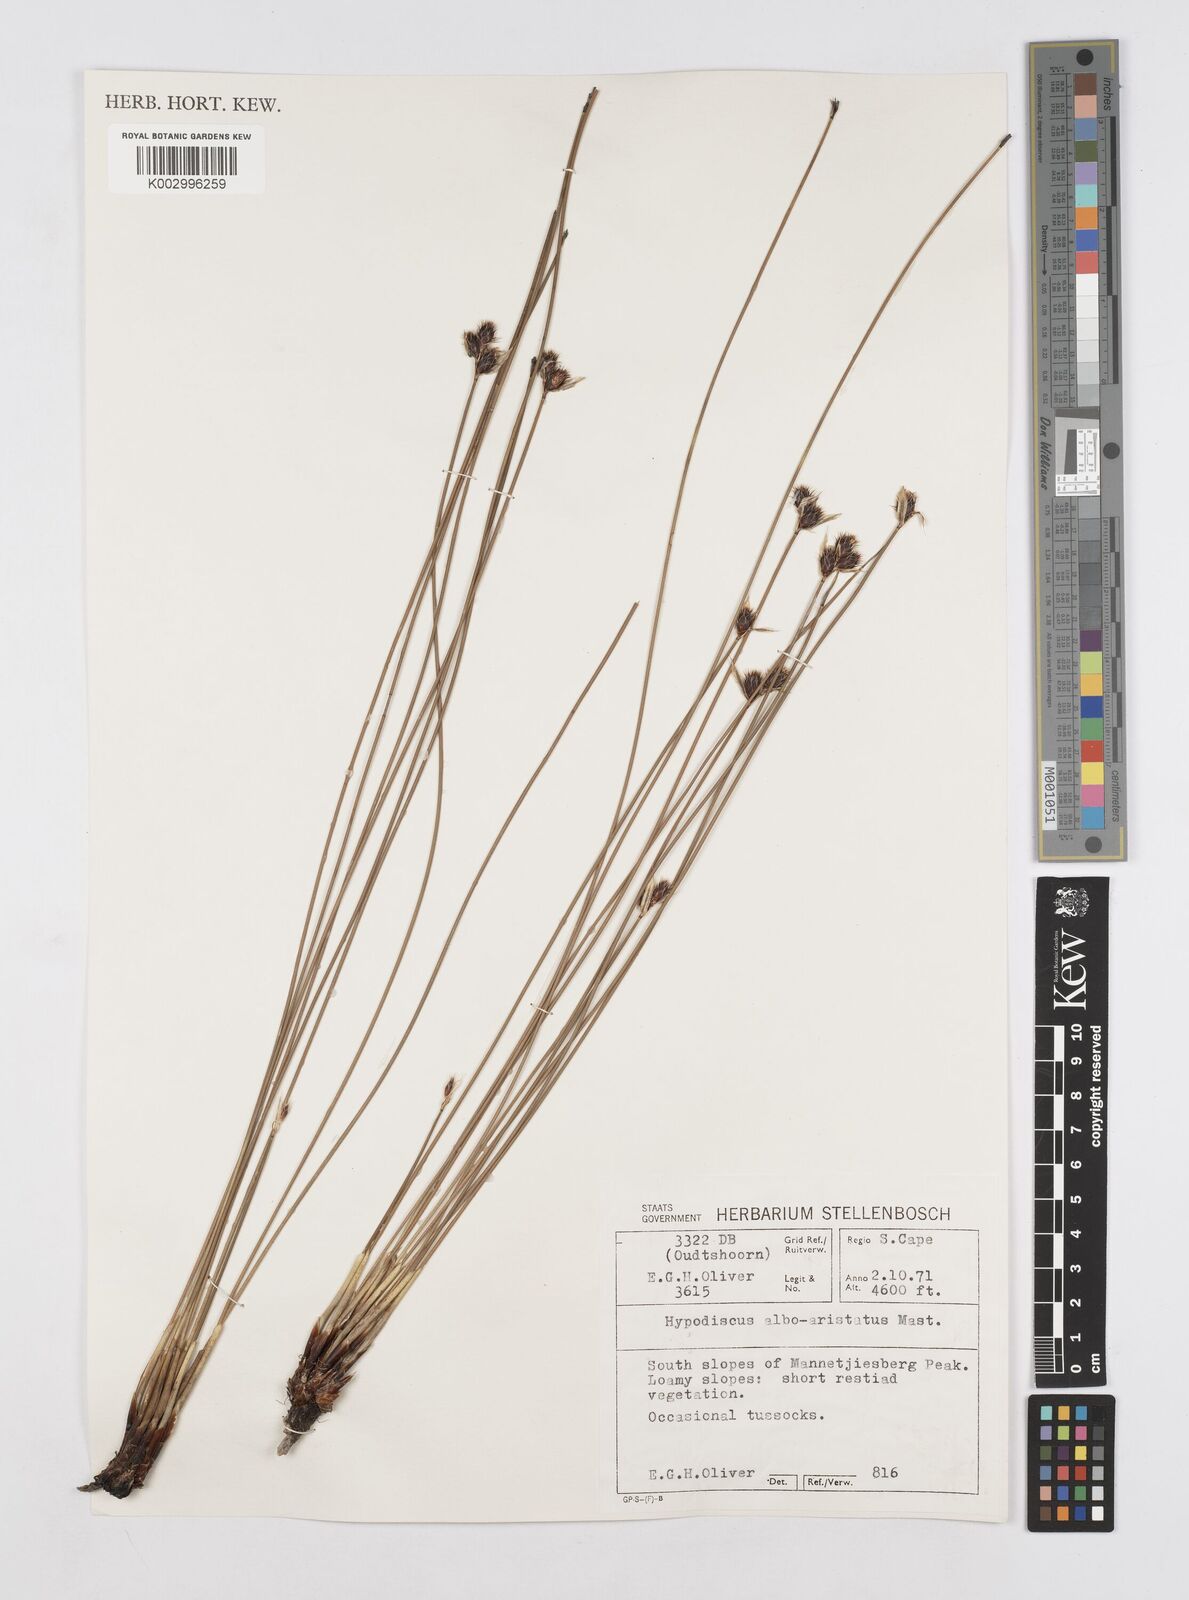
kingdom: Plantae
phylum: Tracheophyta
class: Liliopsida
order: Poales
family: Restionaceae
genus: Hypodiscus
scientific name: Hypodiscus alboaristatus
